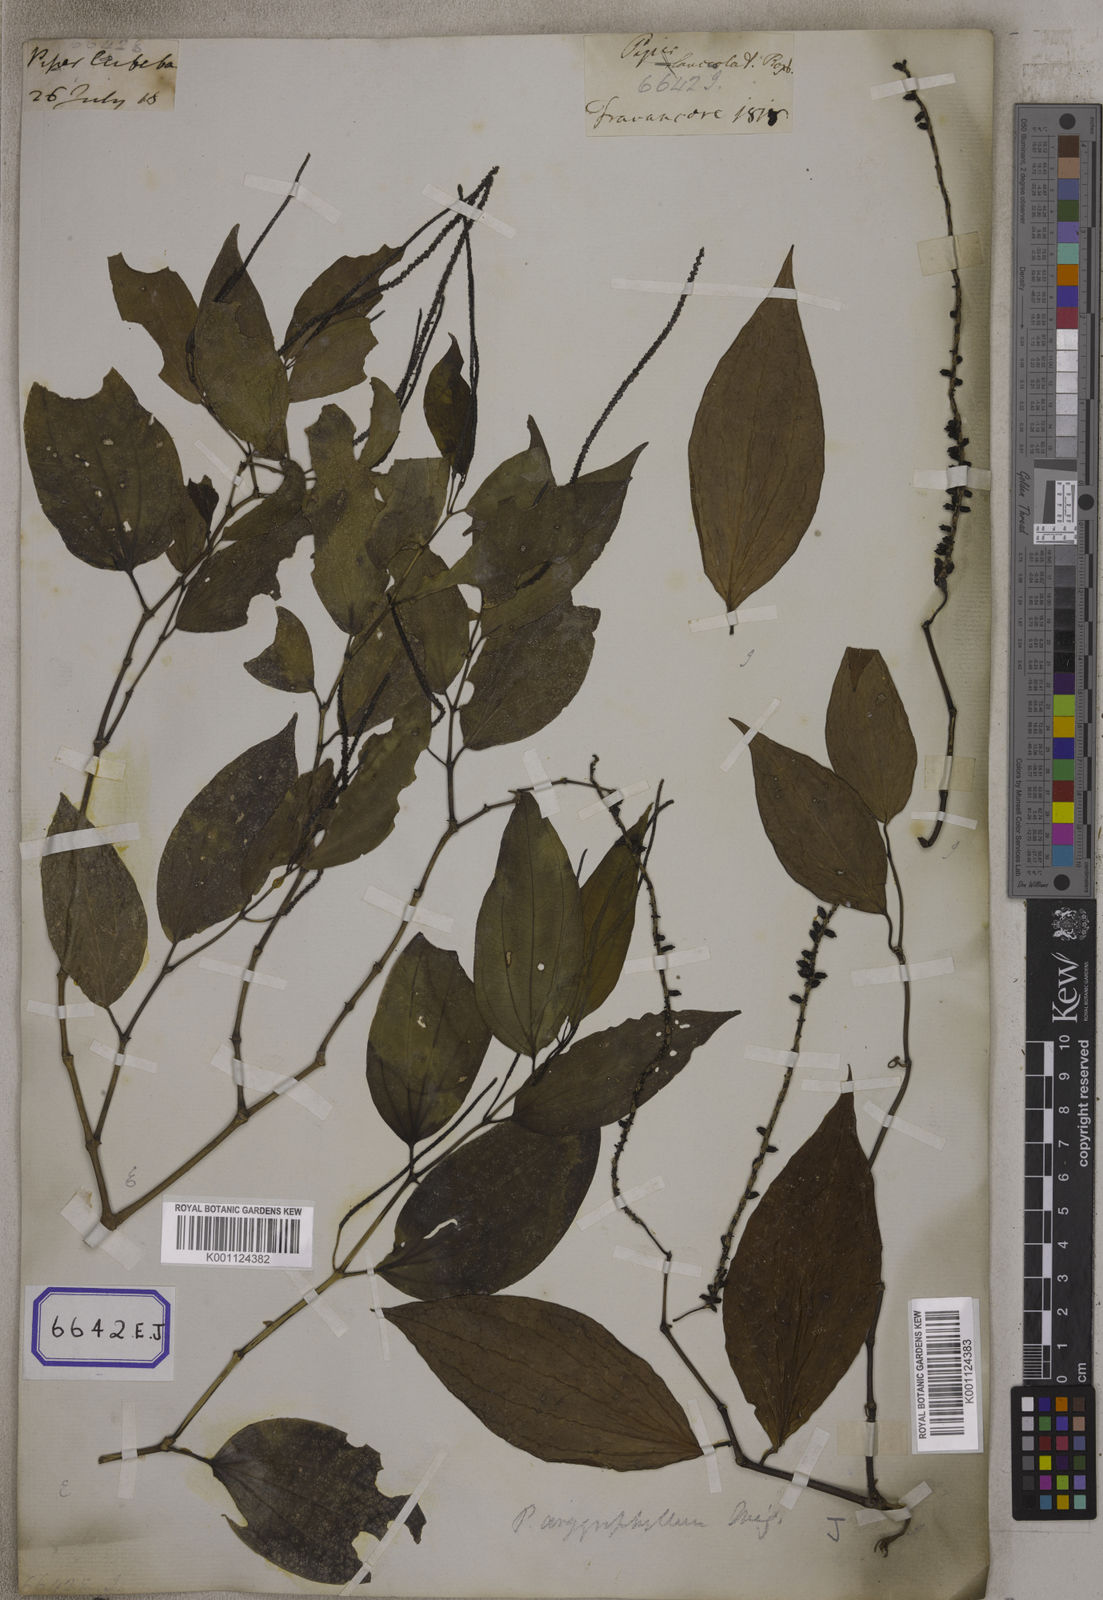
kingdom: Plantae
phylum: Tracheophyta
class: Magnoliopsida
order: Piperales
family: Piperaceae
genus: Piper
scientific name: Piper
